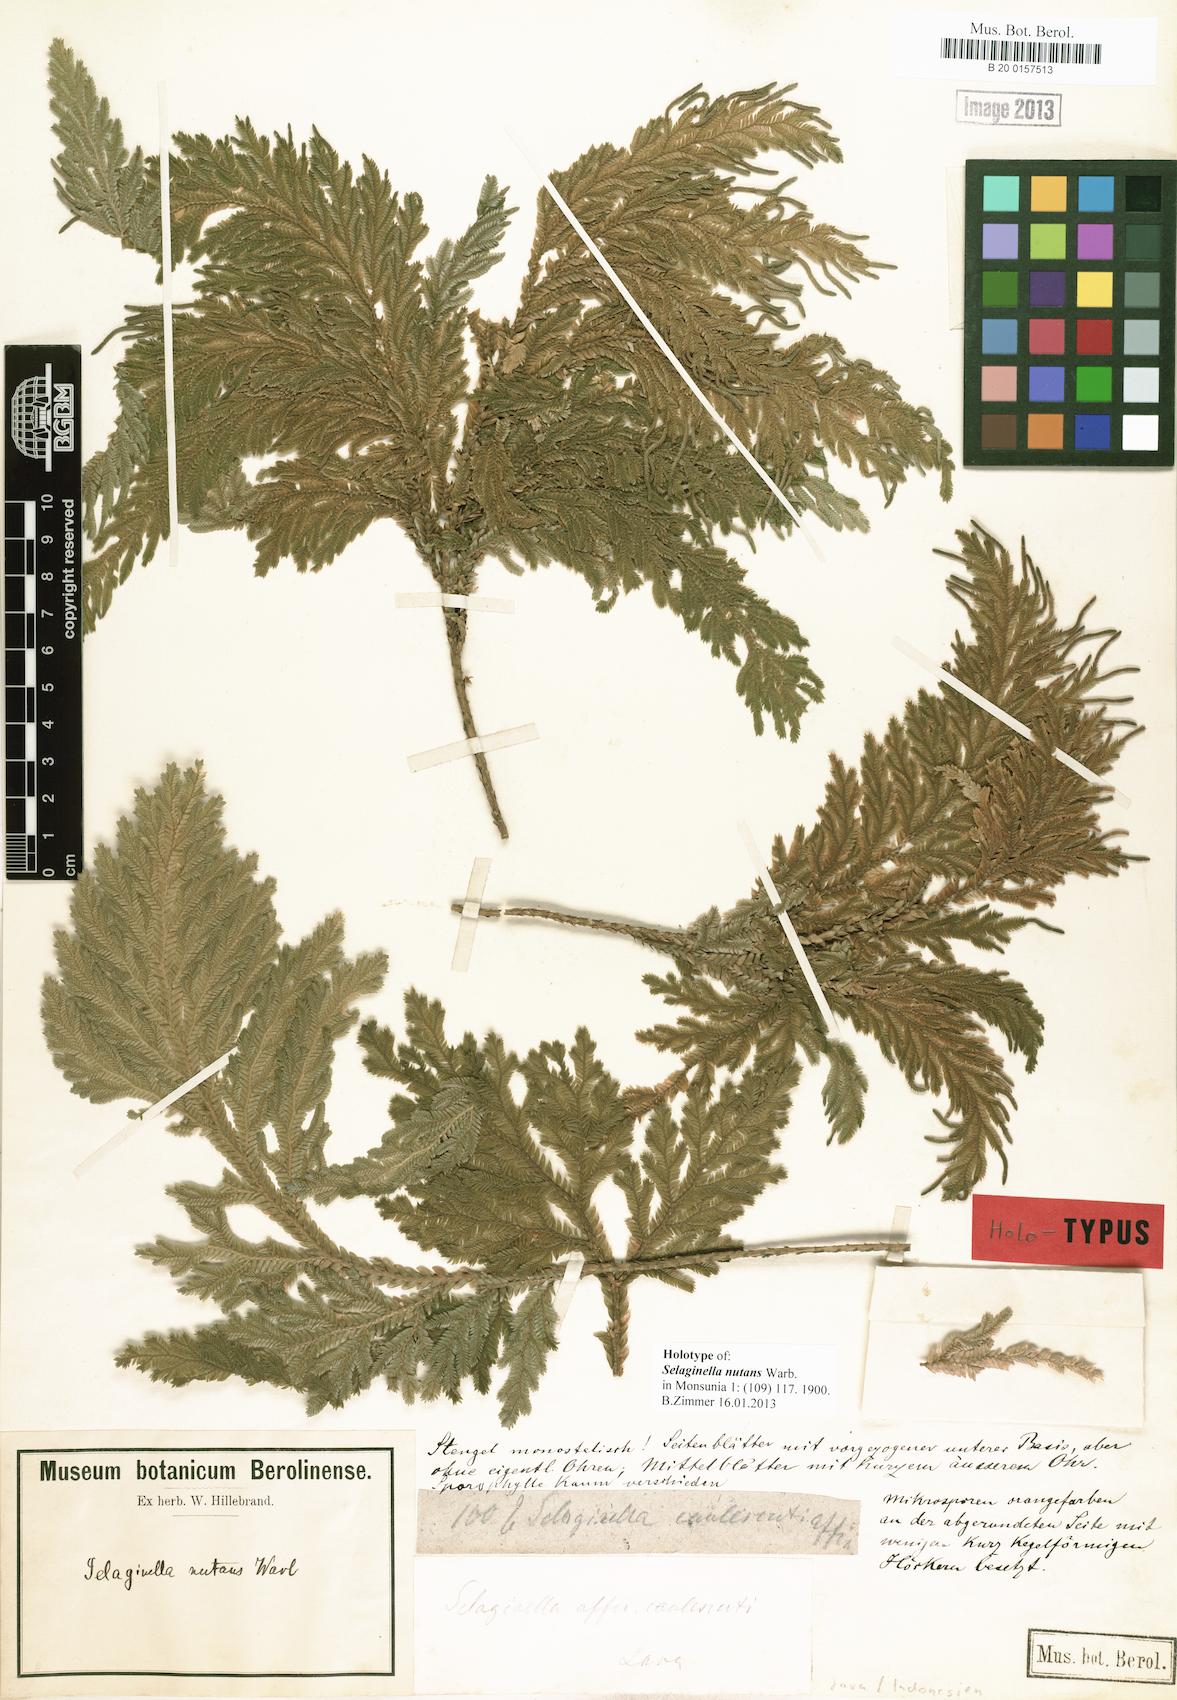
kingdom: Plantae
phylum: Tracheophyta
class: Lycopodiopsida
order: Selaginellales
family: Selaginellaceae
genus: Selaginella
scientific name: Selaginella frondosa
